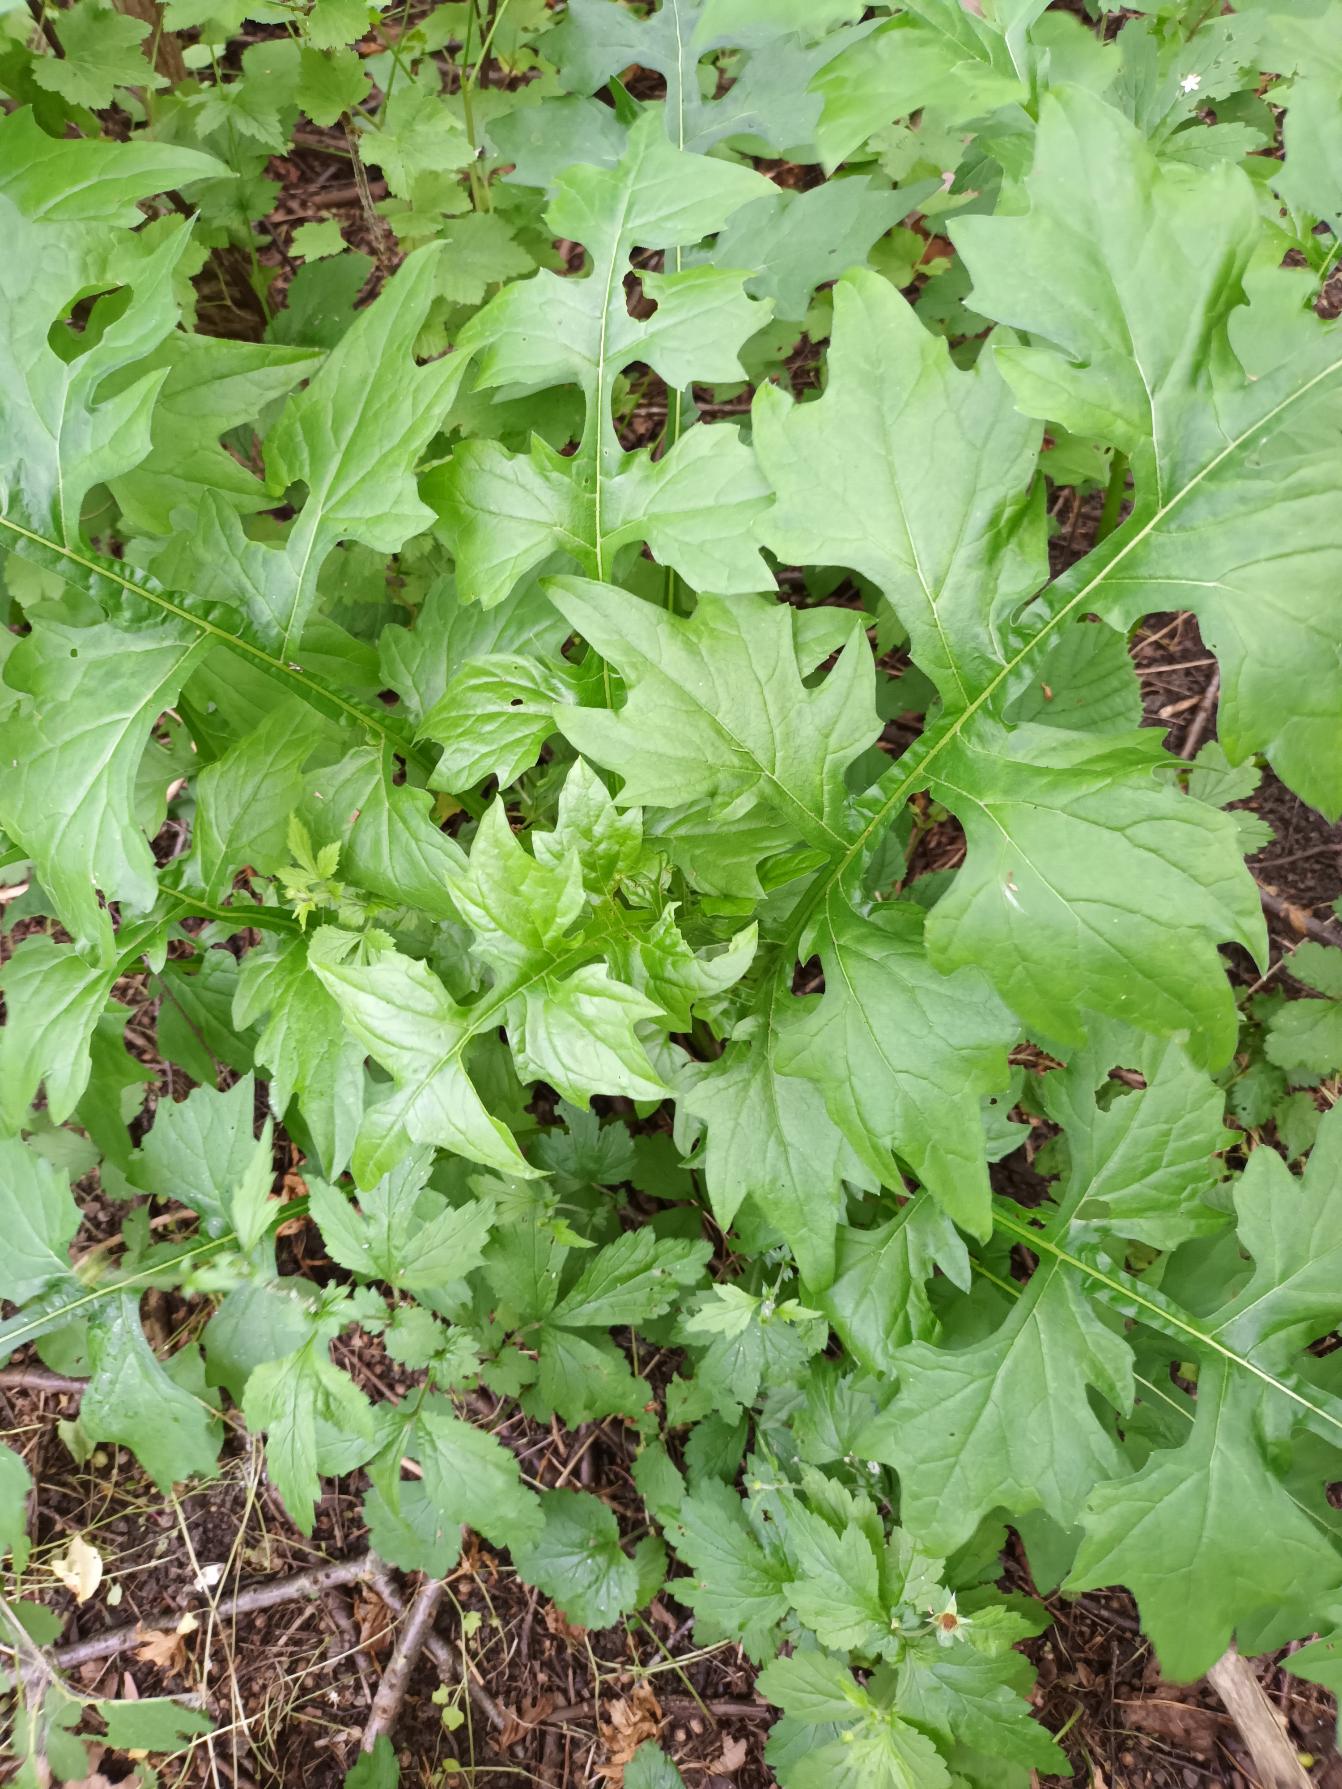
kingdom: Plantae
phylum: Tracheophyta
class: Magnoliopsida
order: Lamiales
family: Acanthaceae
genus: Acanthus
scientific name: Acanthus hungaricus
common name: Balkantidsel
